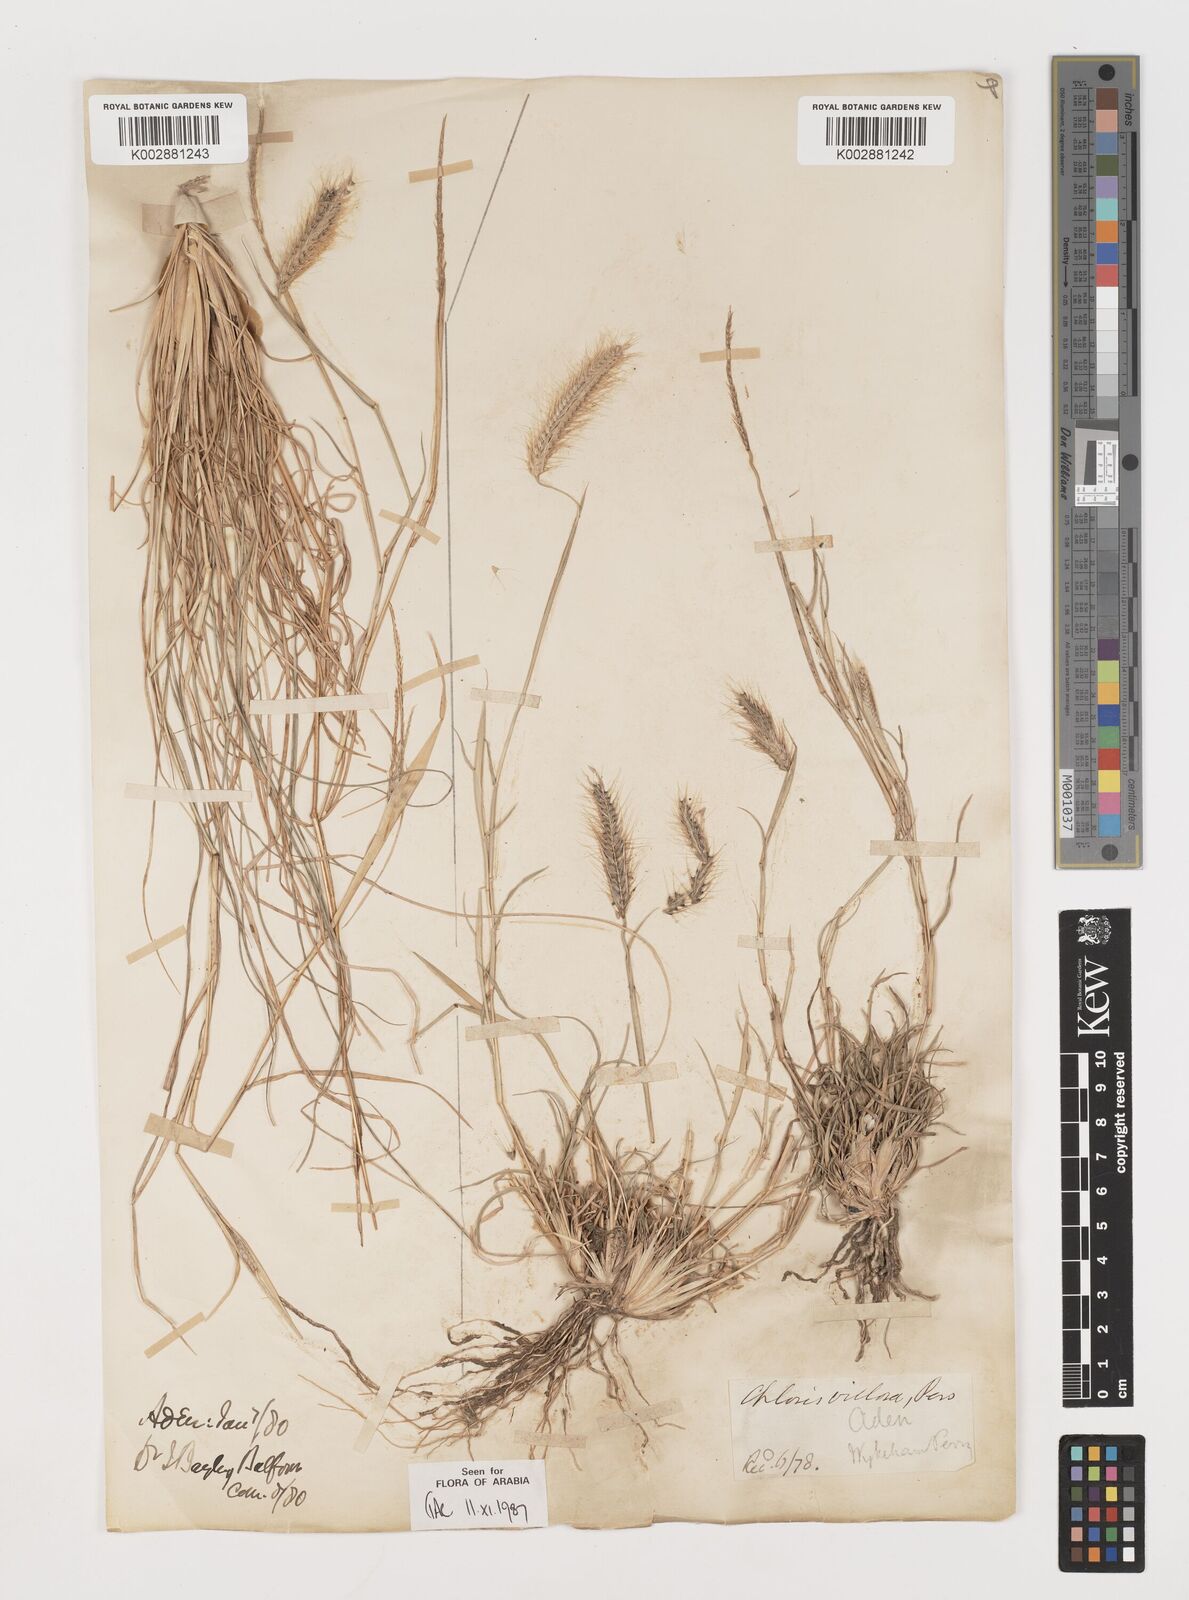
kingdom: Plantae
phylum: Tracheophyta
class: Liliopsida
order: Poales
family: Poaceae
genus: Tetrapogon
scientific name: Tetrapogon villosus
